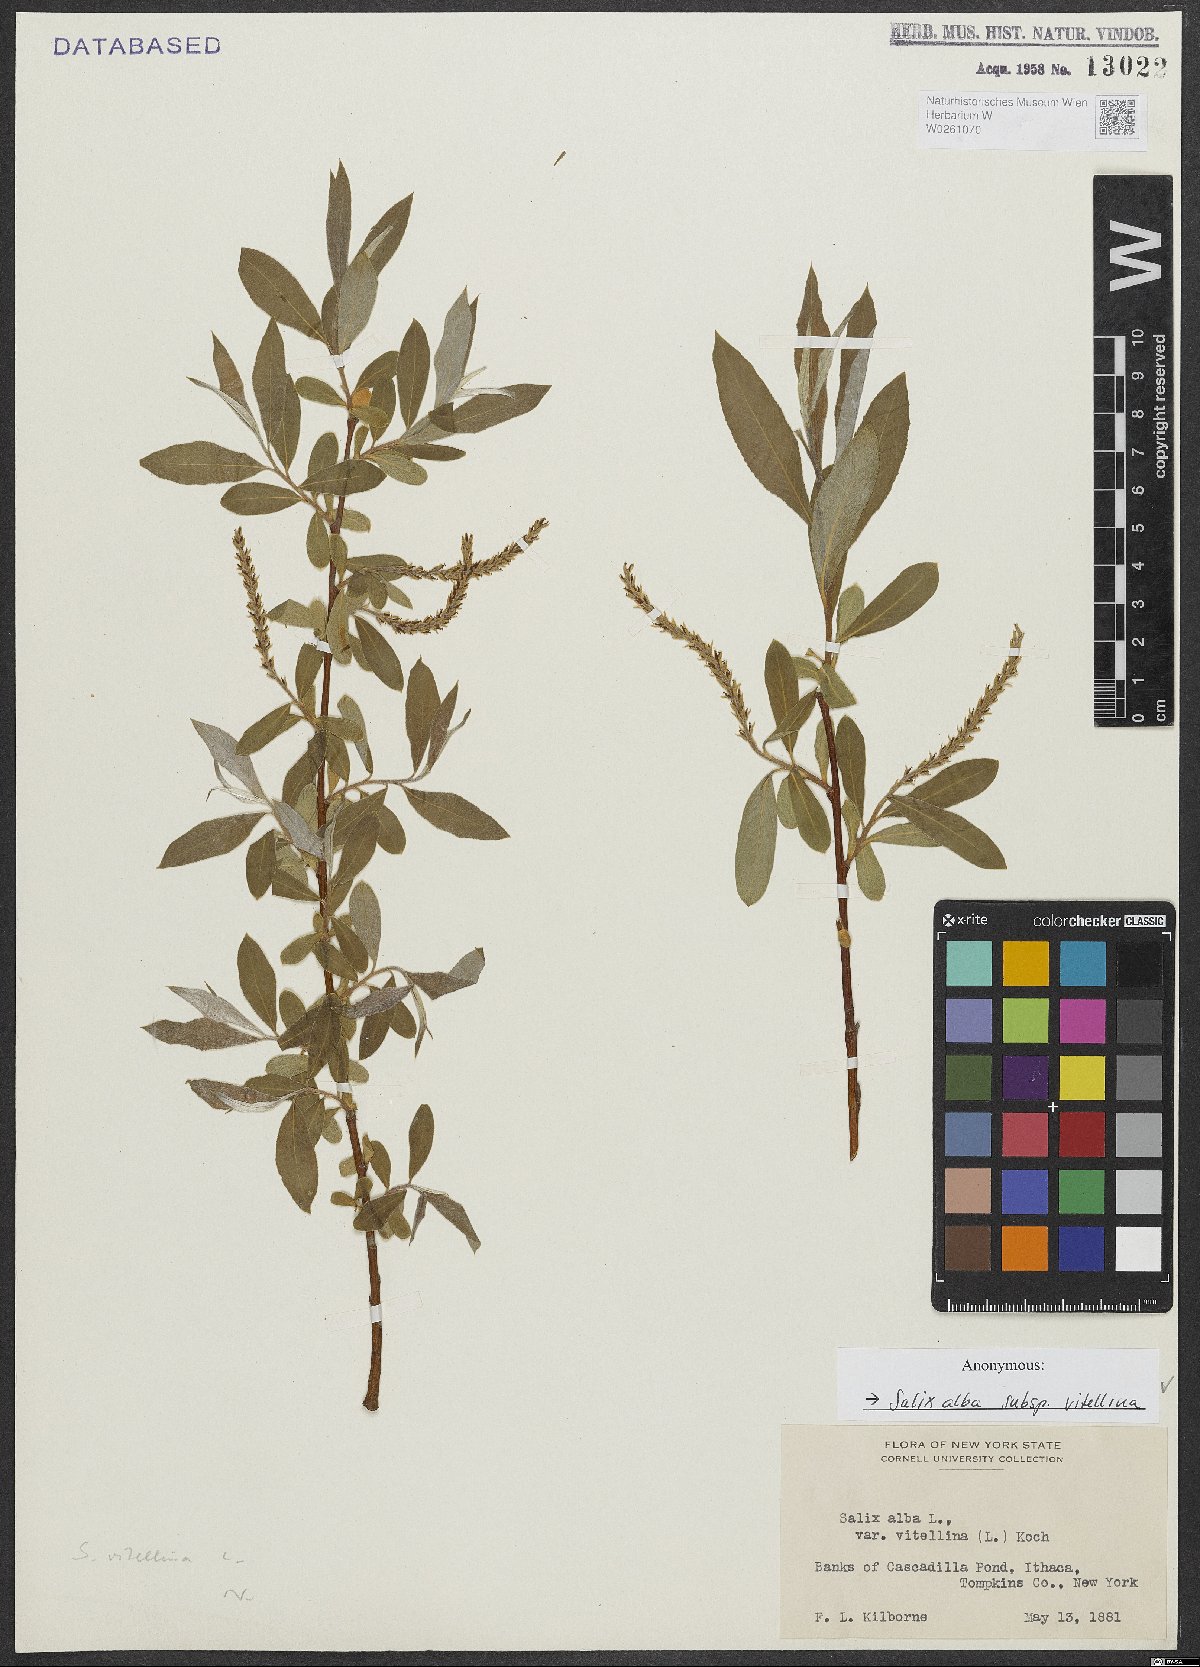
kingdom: Plantae
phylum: Tracheophyta
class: Magnoliopsida
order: Malpighiales
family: Salicaceae
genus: Salix
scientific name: Salix alba
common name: White willow
